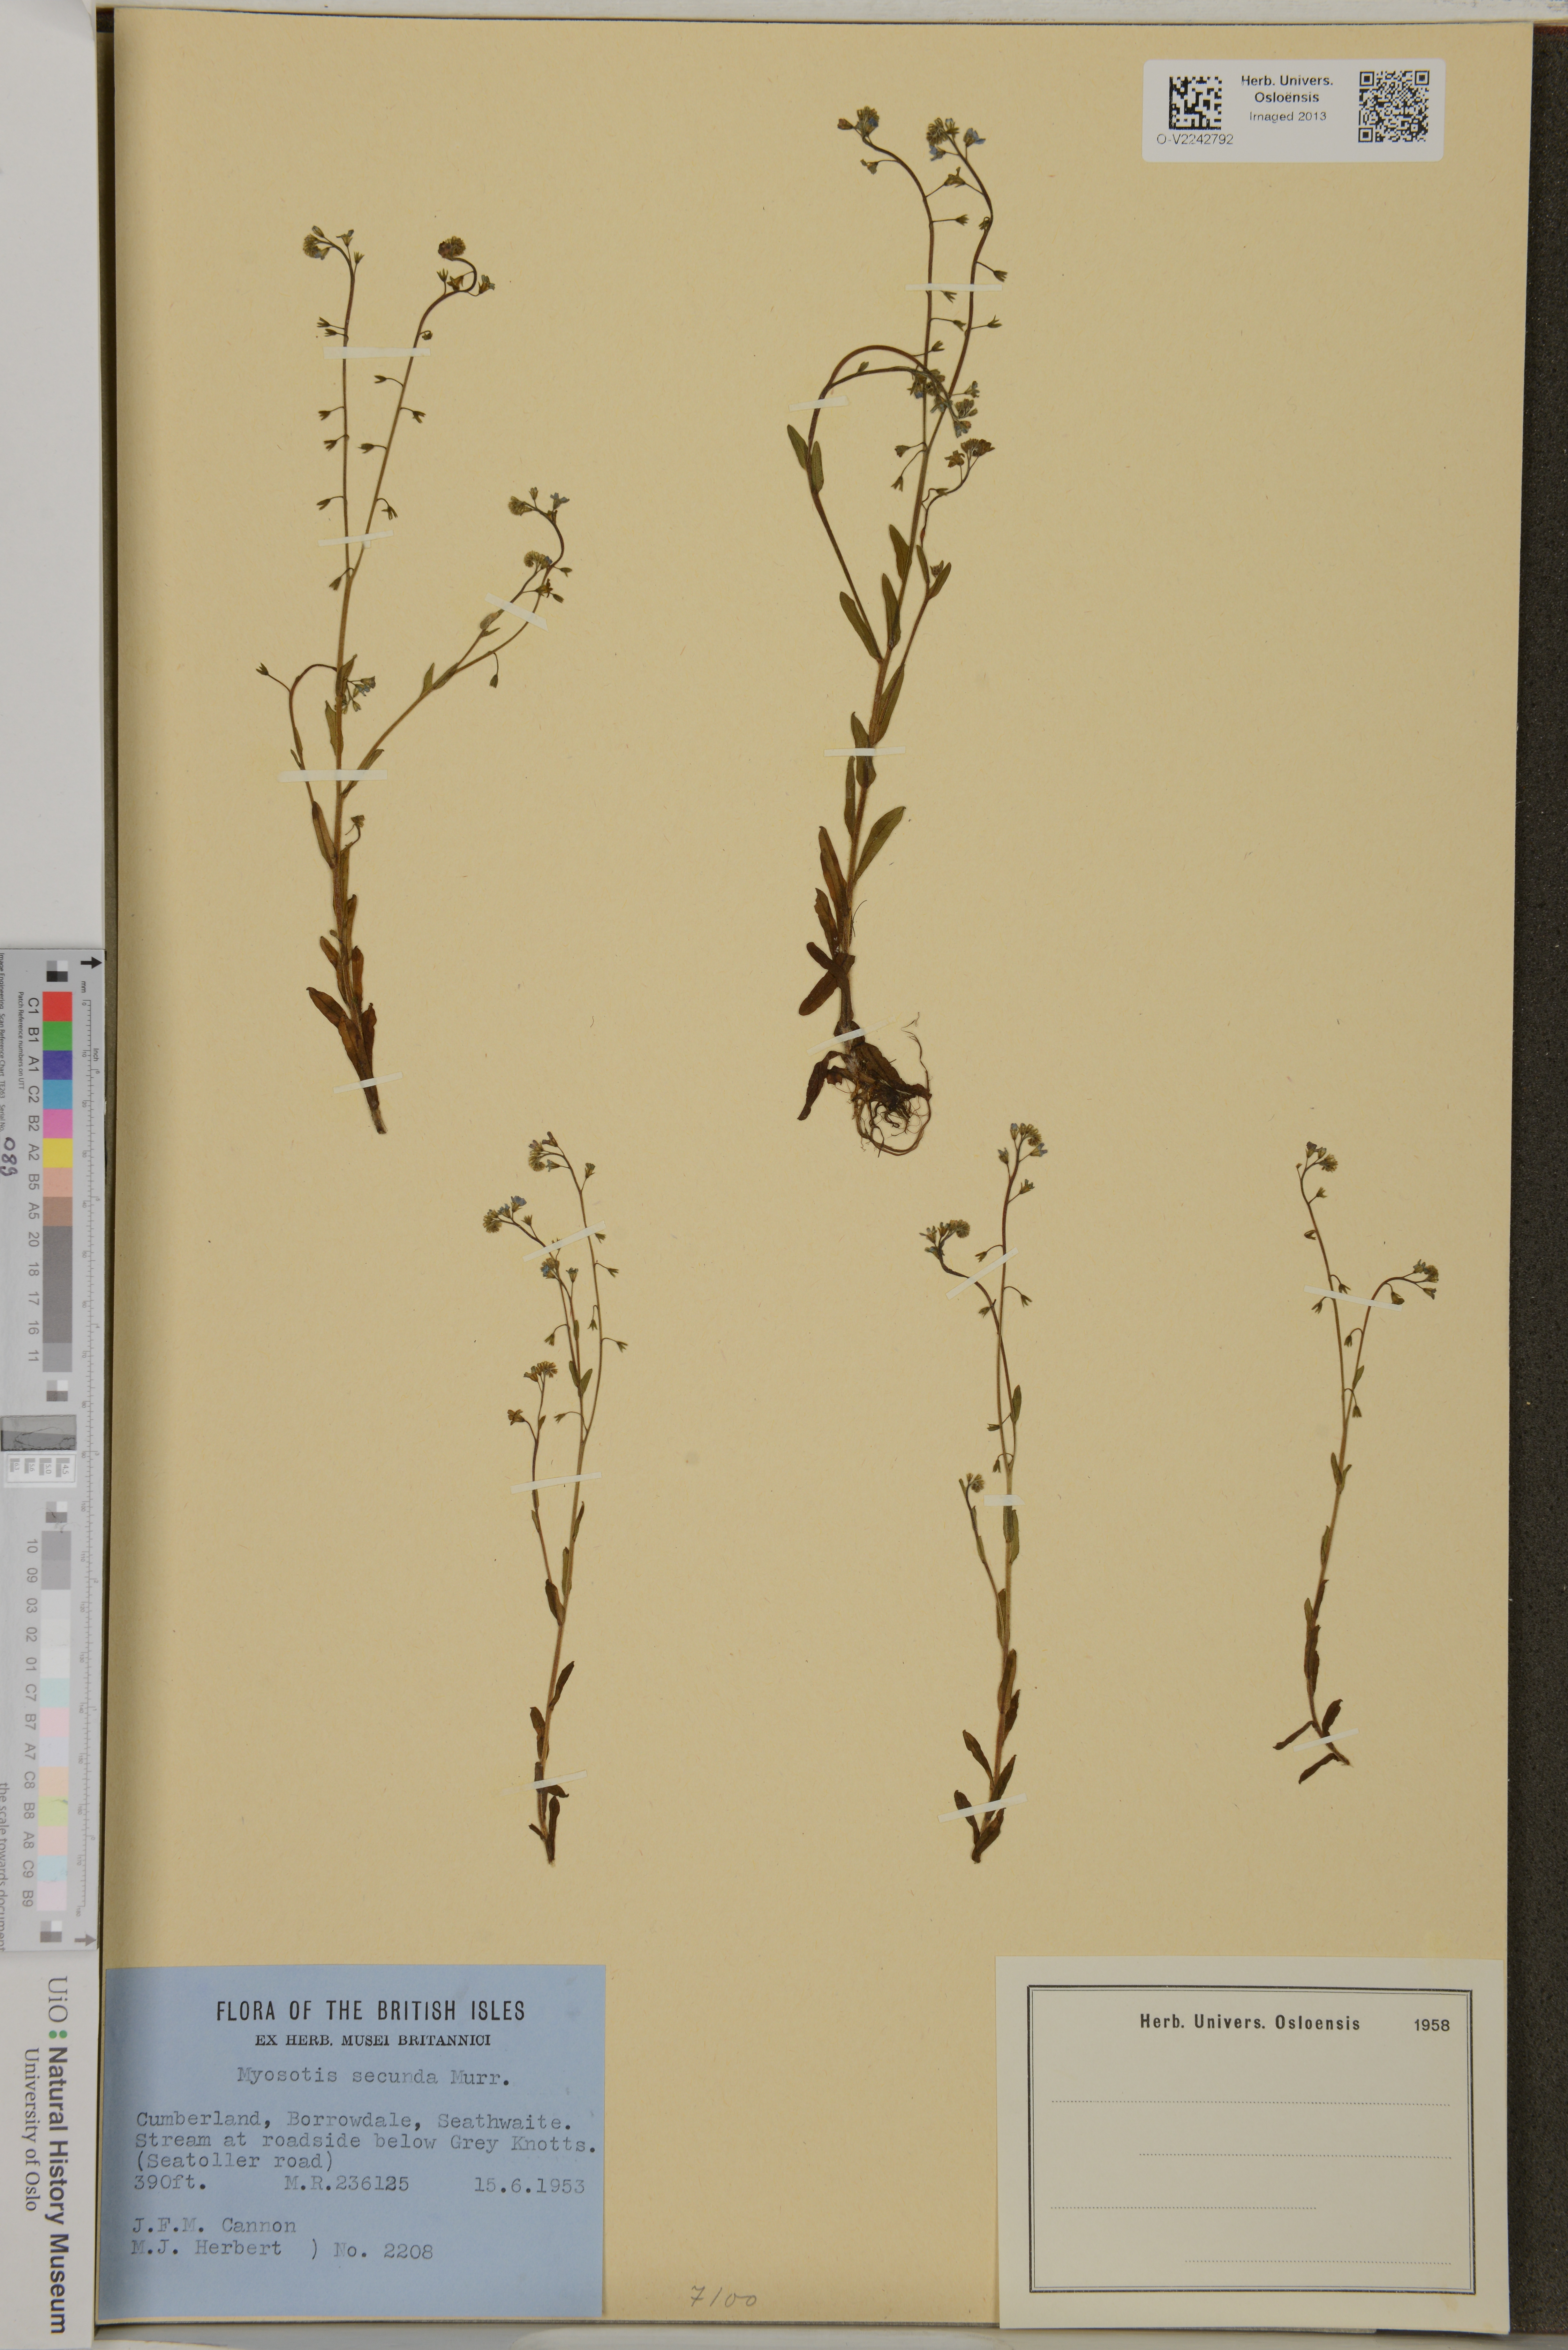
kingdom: Plantae
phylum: Tracheophyta
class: Magnoliopsida
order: Boraginales
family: Boraginaceae
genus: Myosotis
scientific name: Myosotis secunda
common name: Creeping forget-me-not
